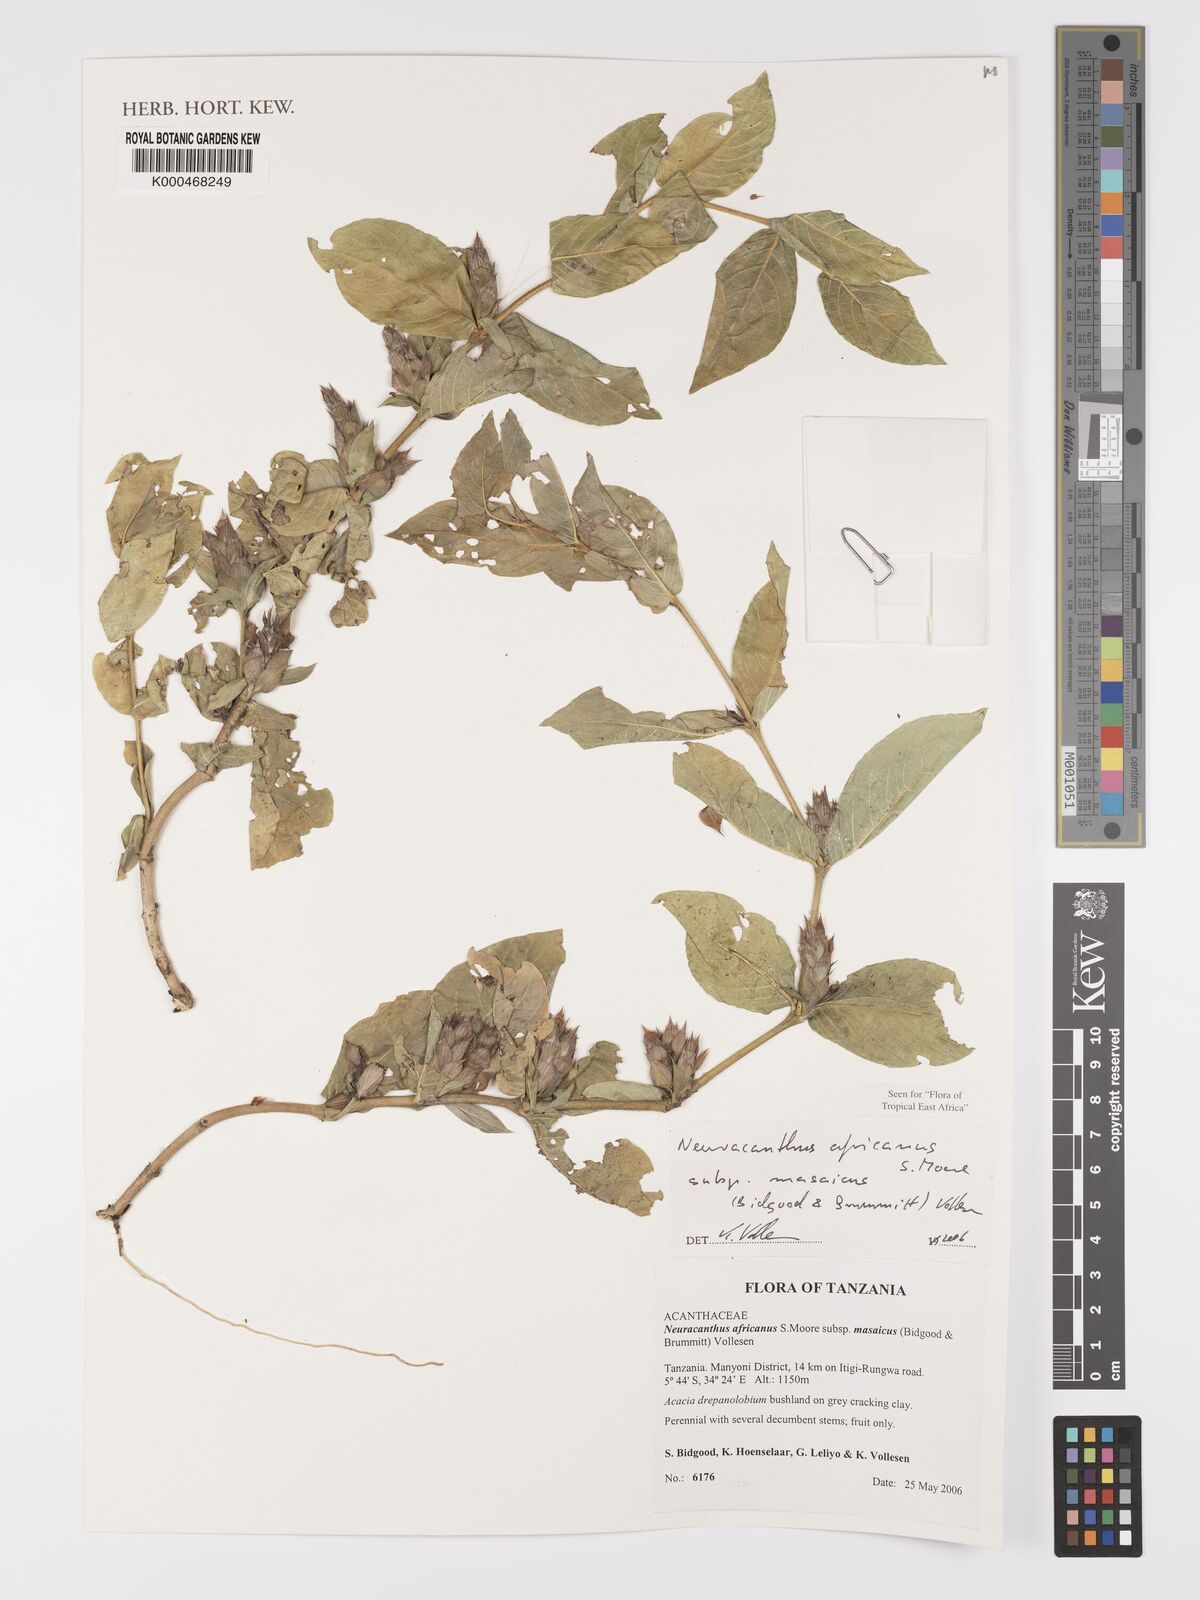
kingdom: Plantae
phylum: Tracheophyta
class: Magnoliopsida
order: Lamiales
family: Acanthaceae
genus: Neuracanthus
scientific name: Neuracanthus africanus
